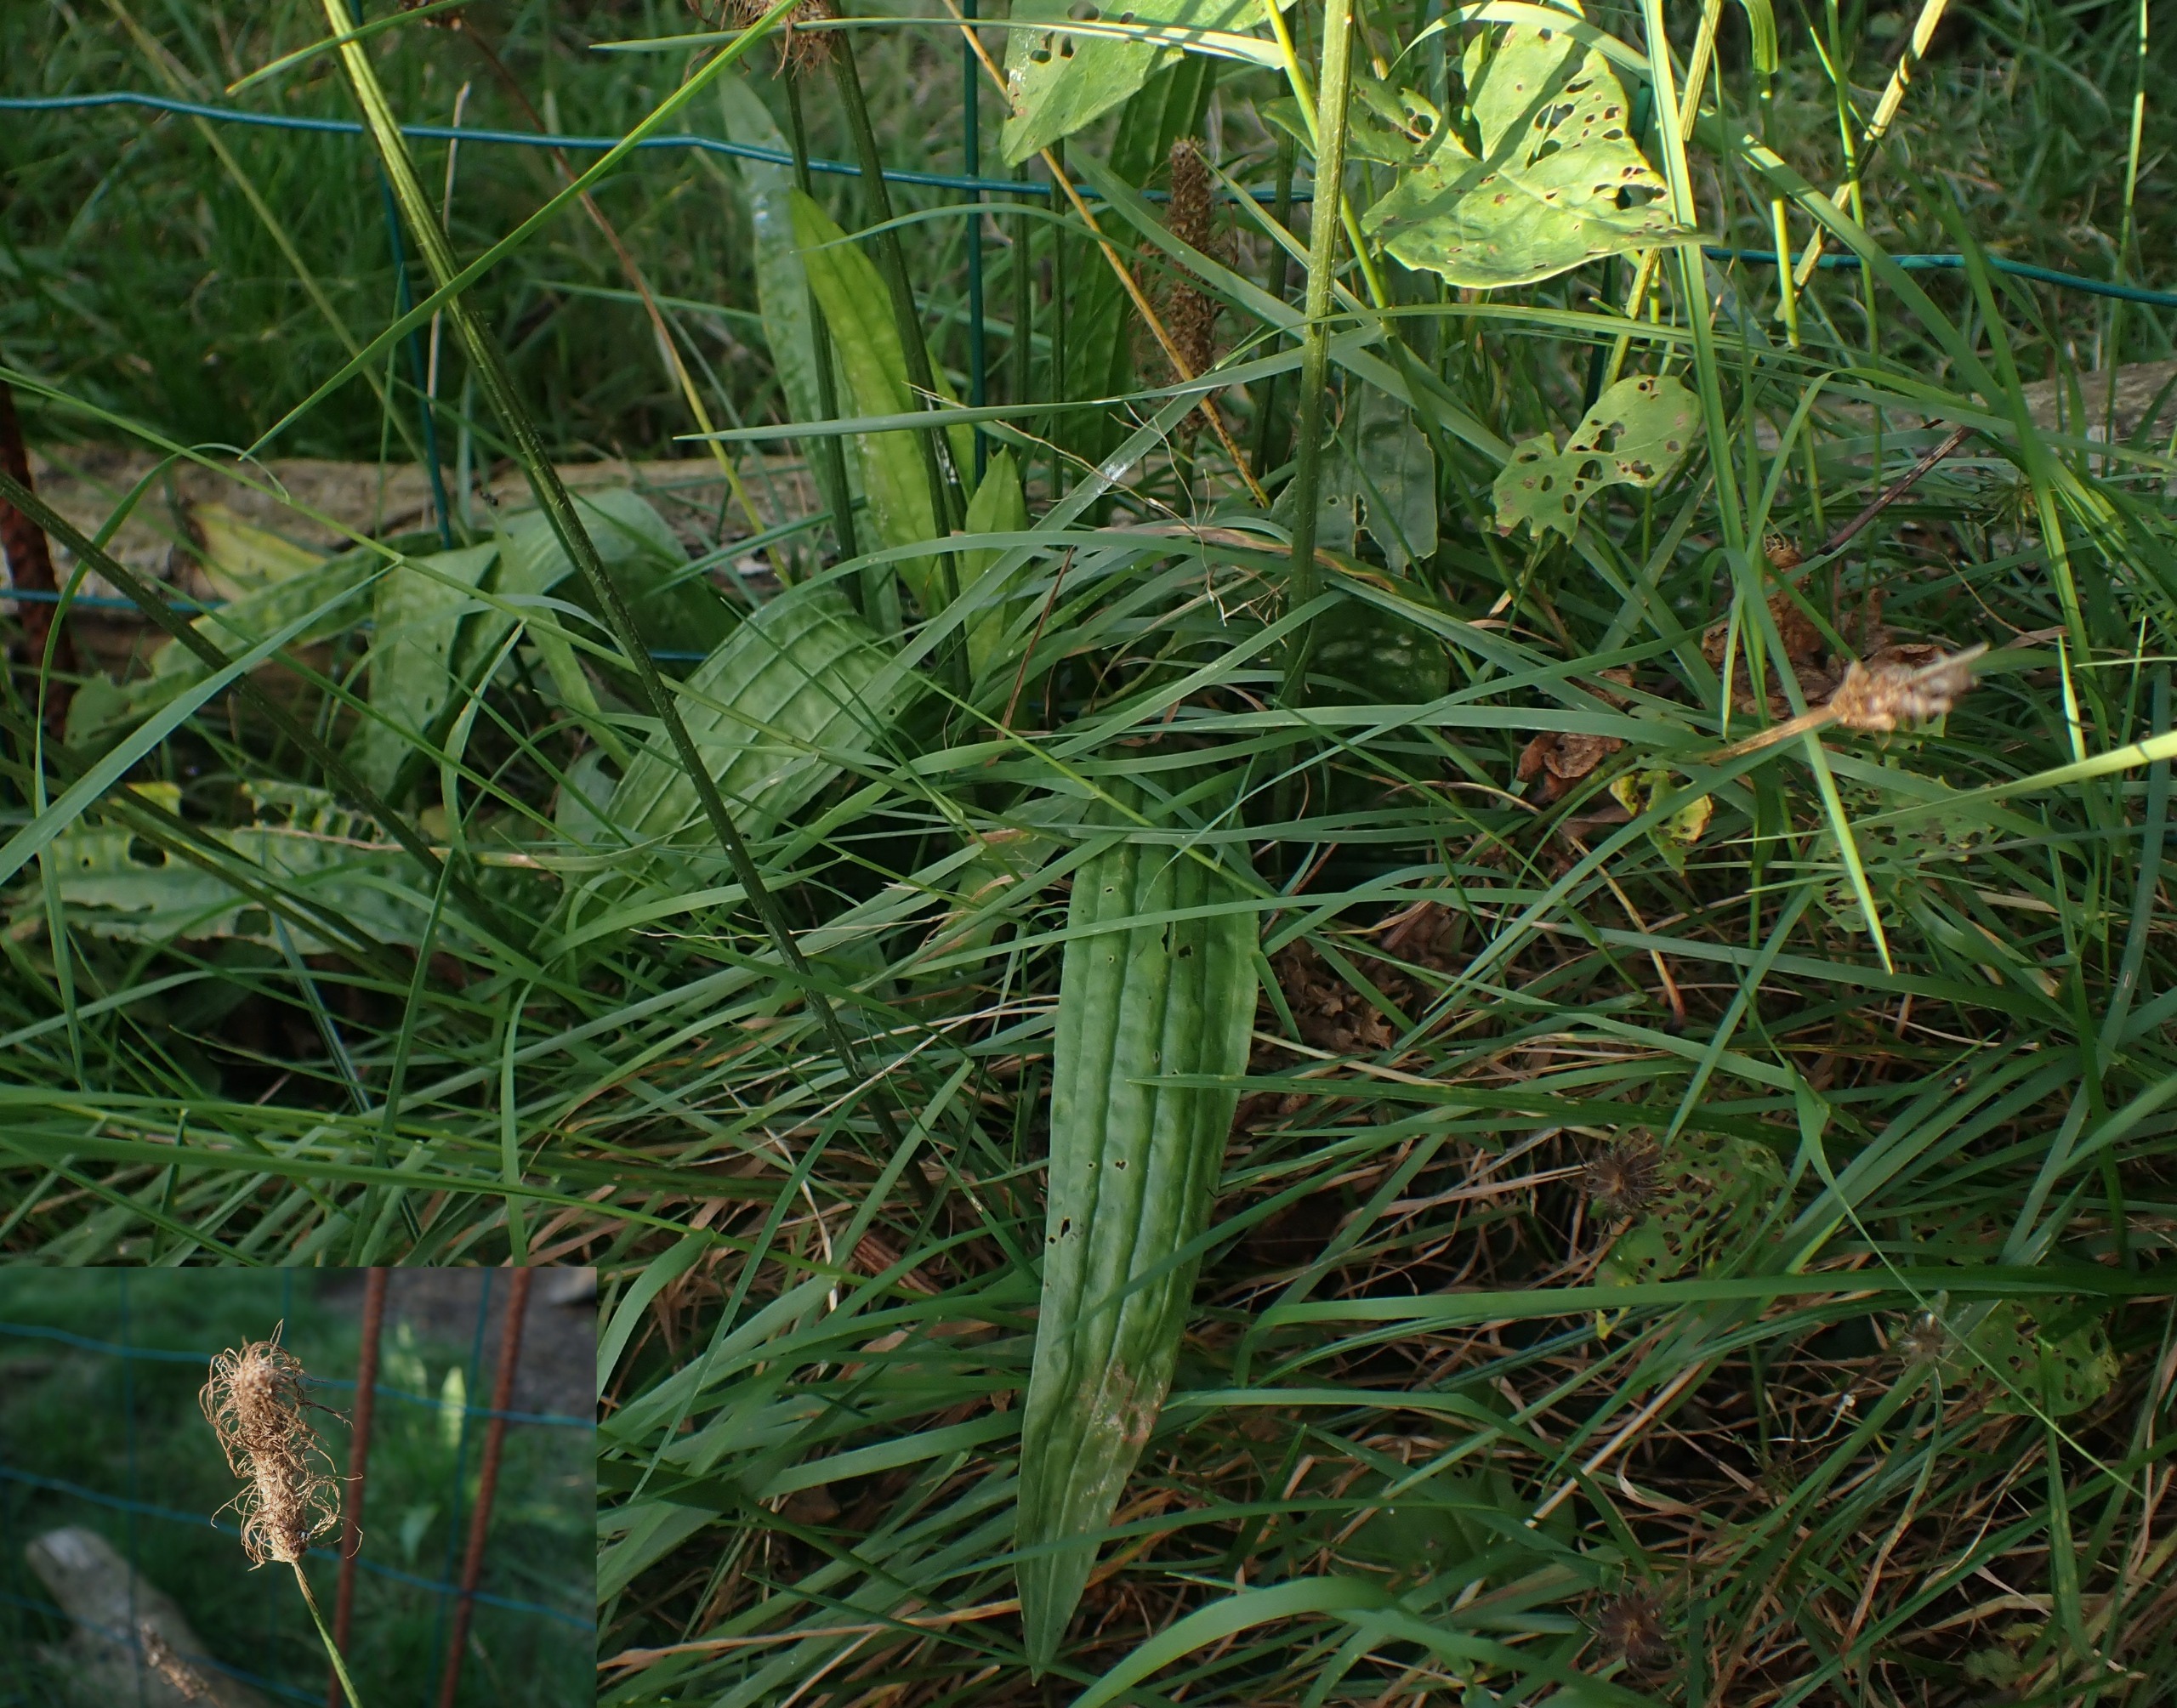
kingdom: Plantae
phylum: Tracheophyta
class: Magnoliopsida
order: Lamiales
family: Plantaginaceae
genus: Plantago
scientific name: Plantago lanceolata
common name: Lancet-vejbred
